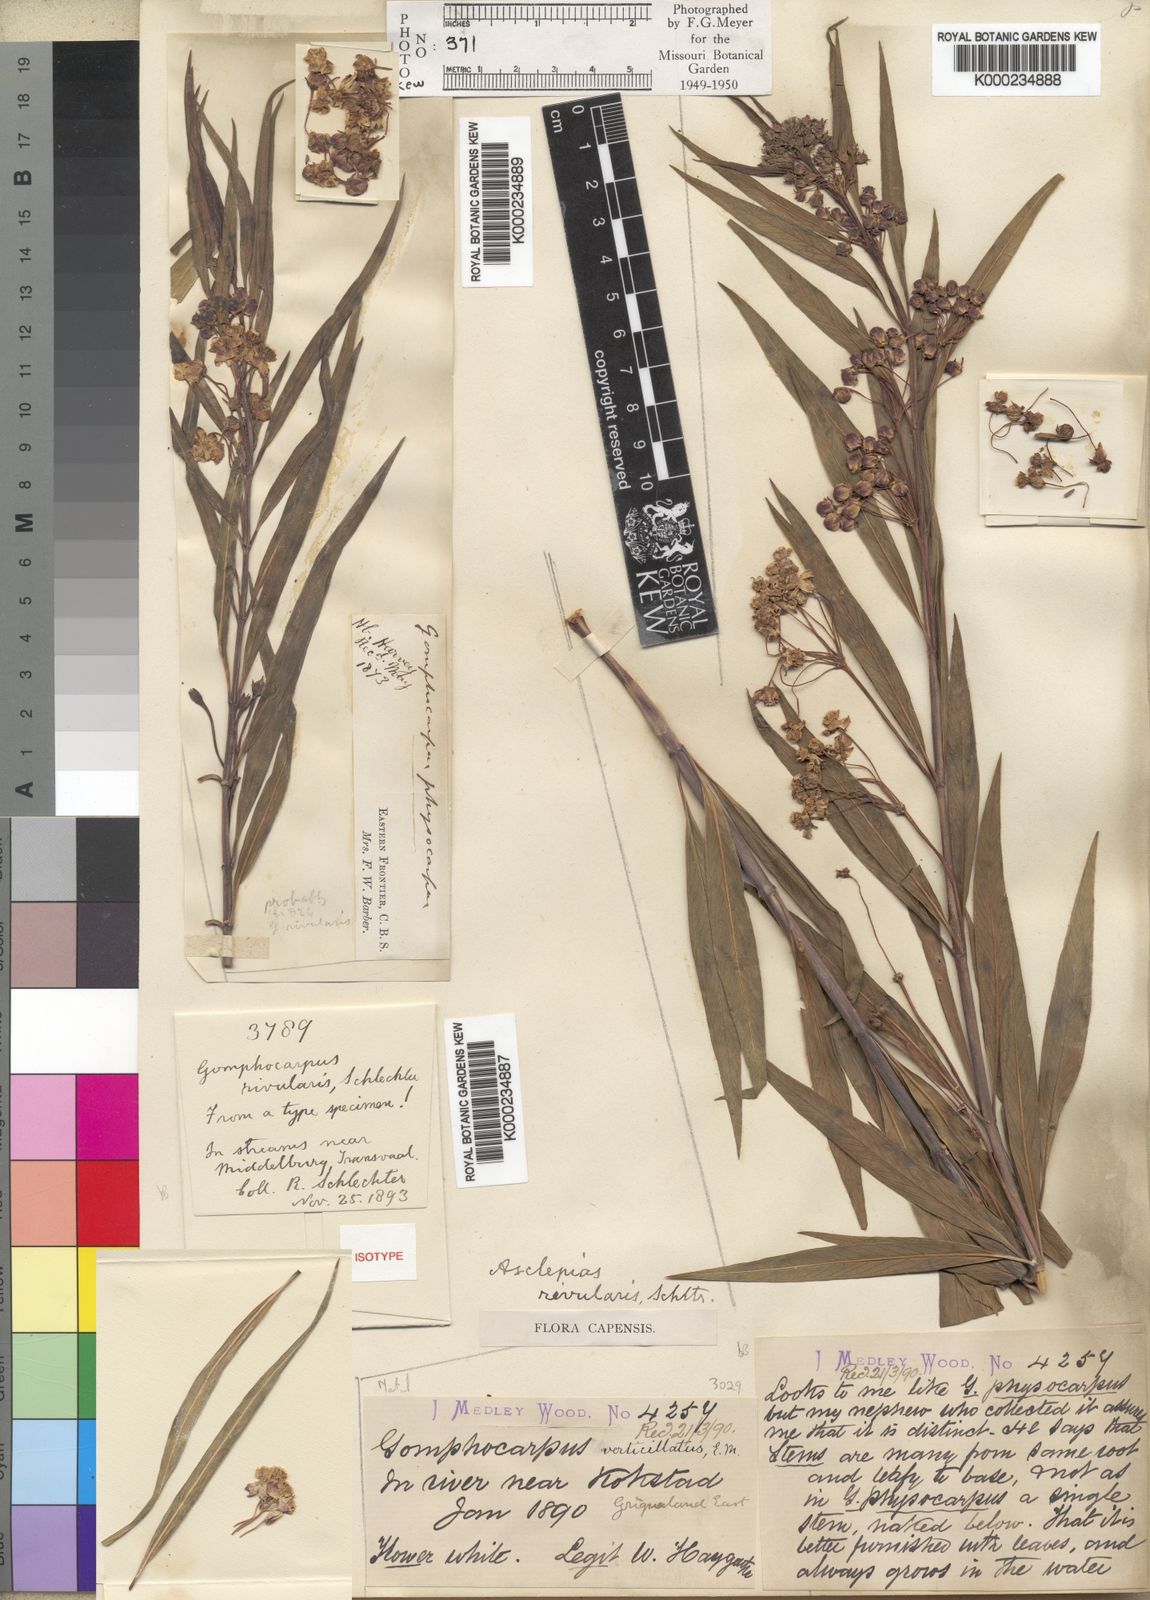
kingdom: Plantae
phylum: Tracheophyta
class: Magnoliopsida
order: Gentianales
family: Apocynaceae
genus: Gomphocarpus
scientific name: Gomphocarpus rivularis
